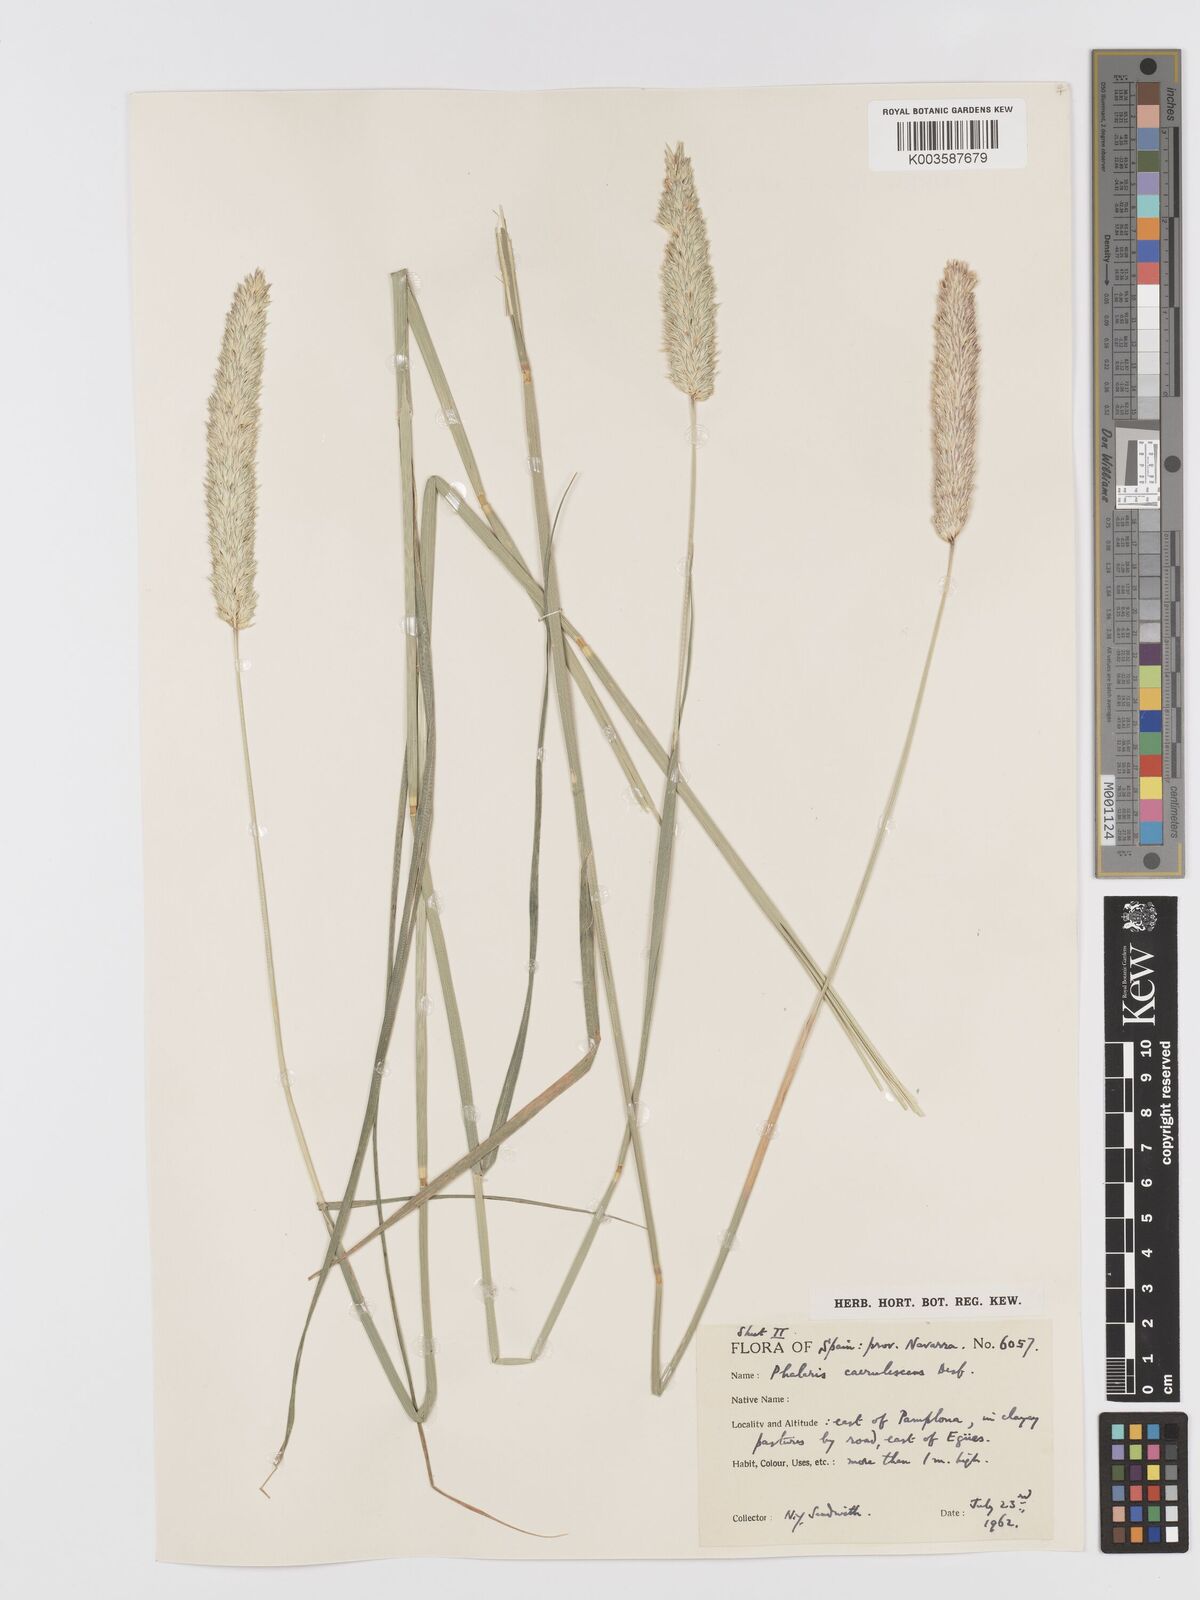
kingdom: Plantae
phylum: Tracheophyta
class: Liliopsida
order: Poales
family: Poaceae
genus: Phalaris
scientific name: Phalaris coerulescens
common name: Sunolgrass
